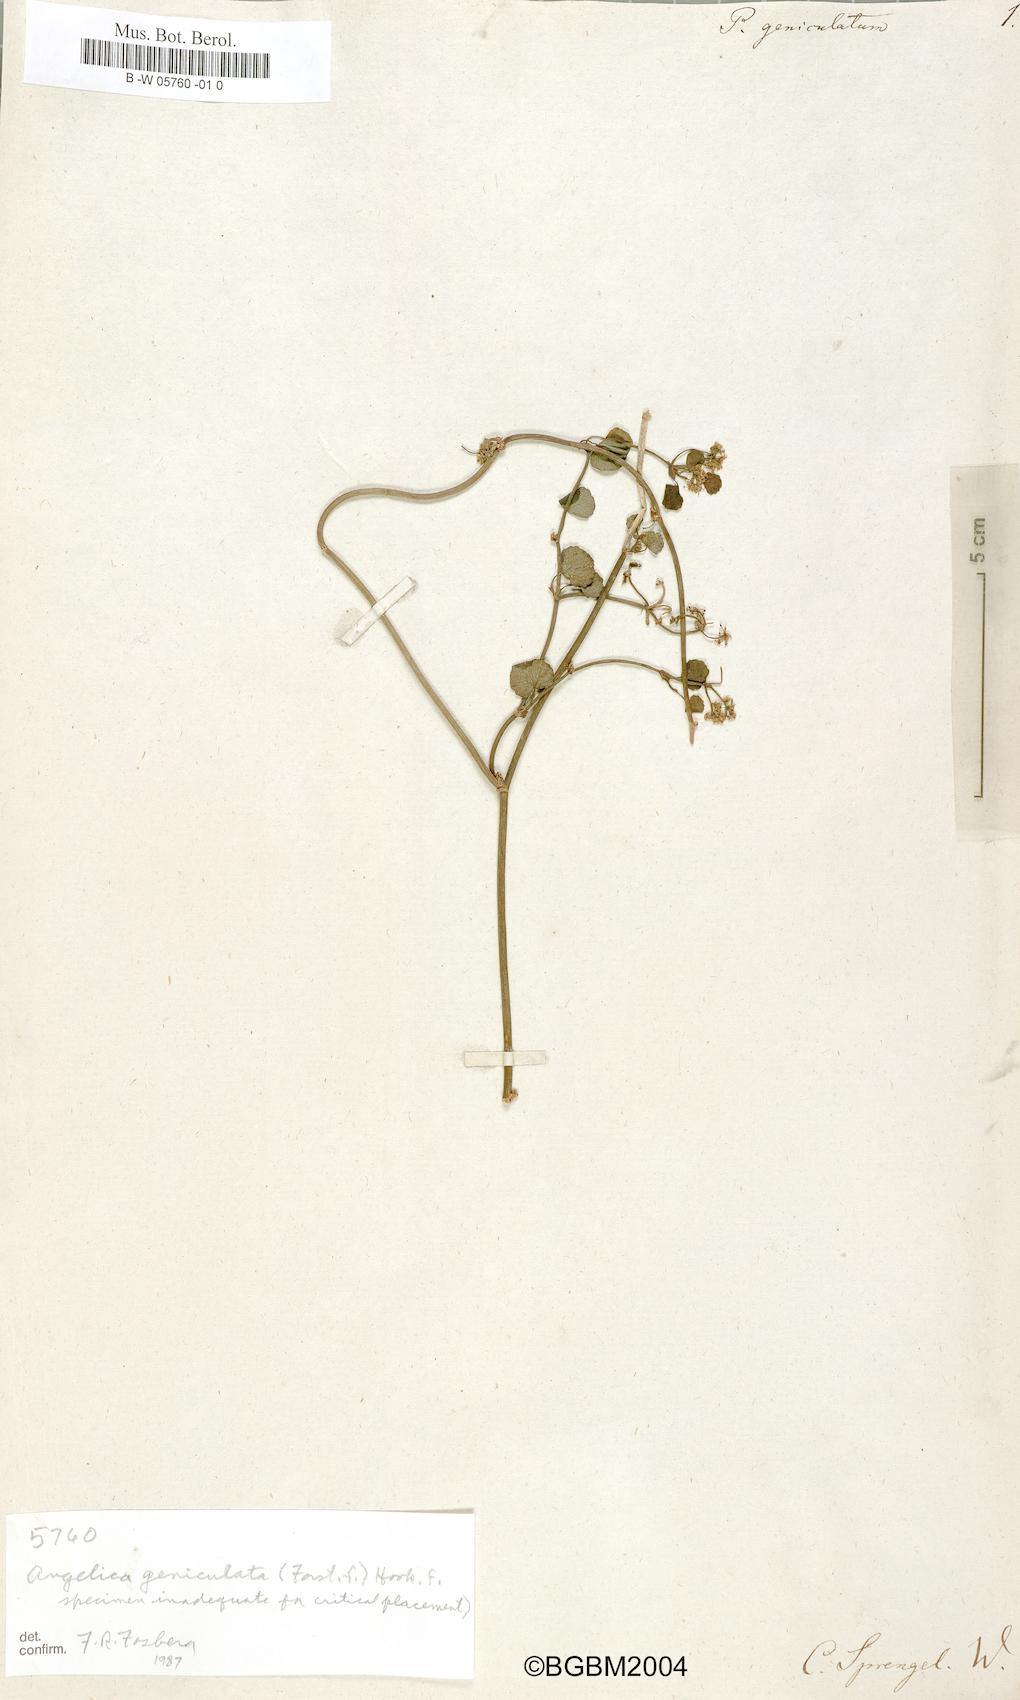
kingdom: Plantae
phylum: Tracheophyta
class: Magnoliopsida
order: Apiales
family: Apiaceae
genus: Scandia
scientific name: Scandia geniculata
